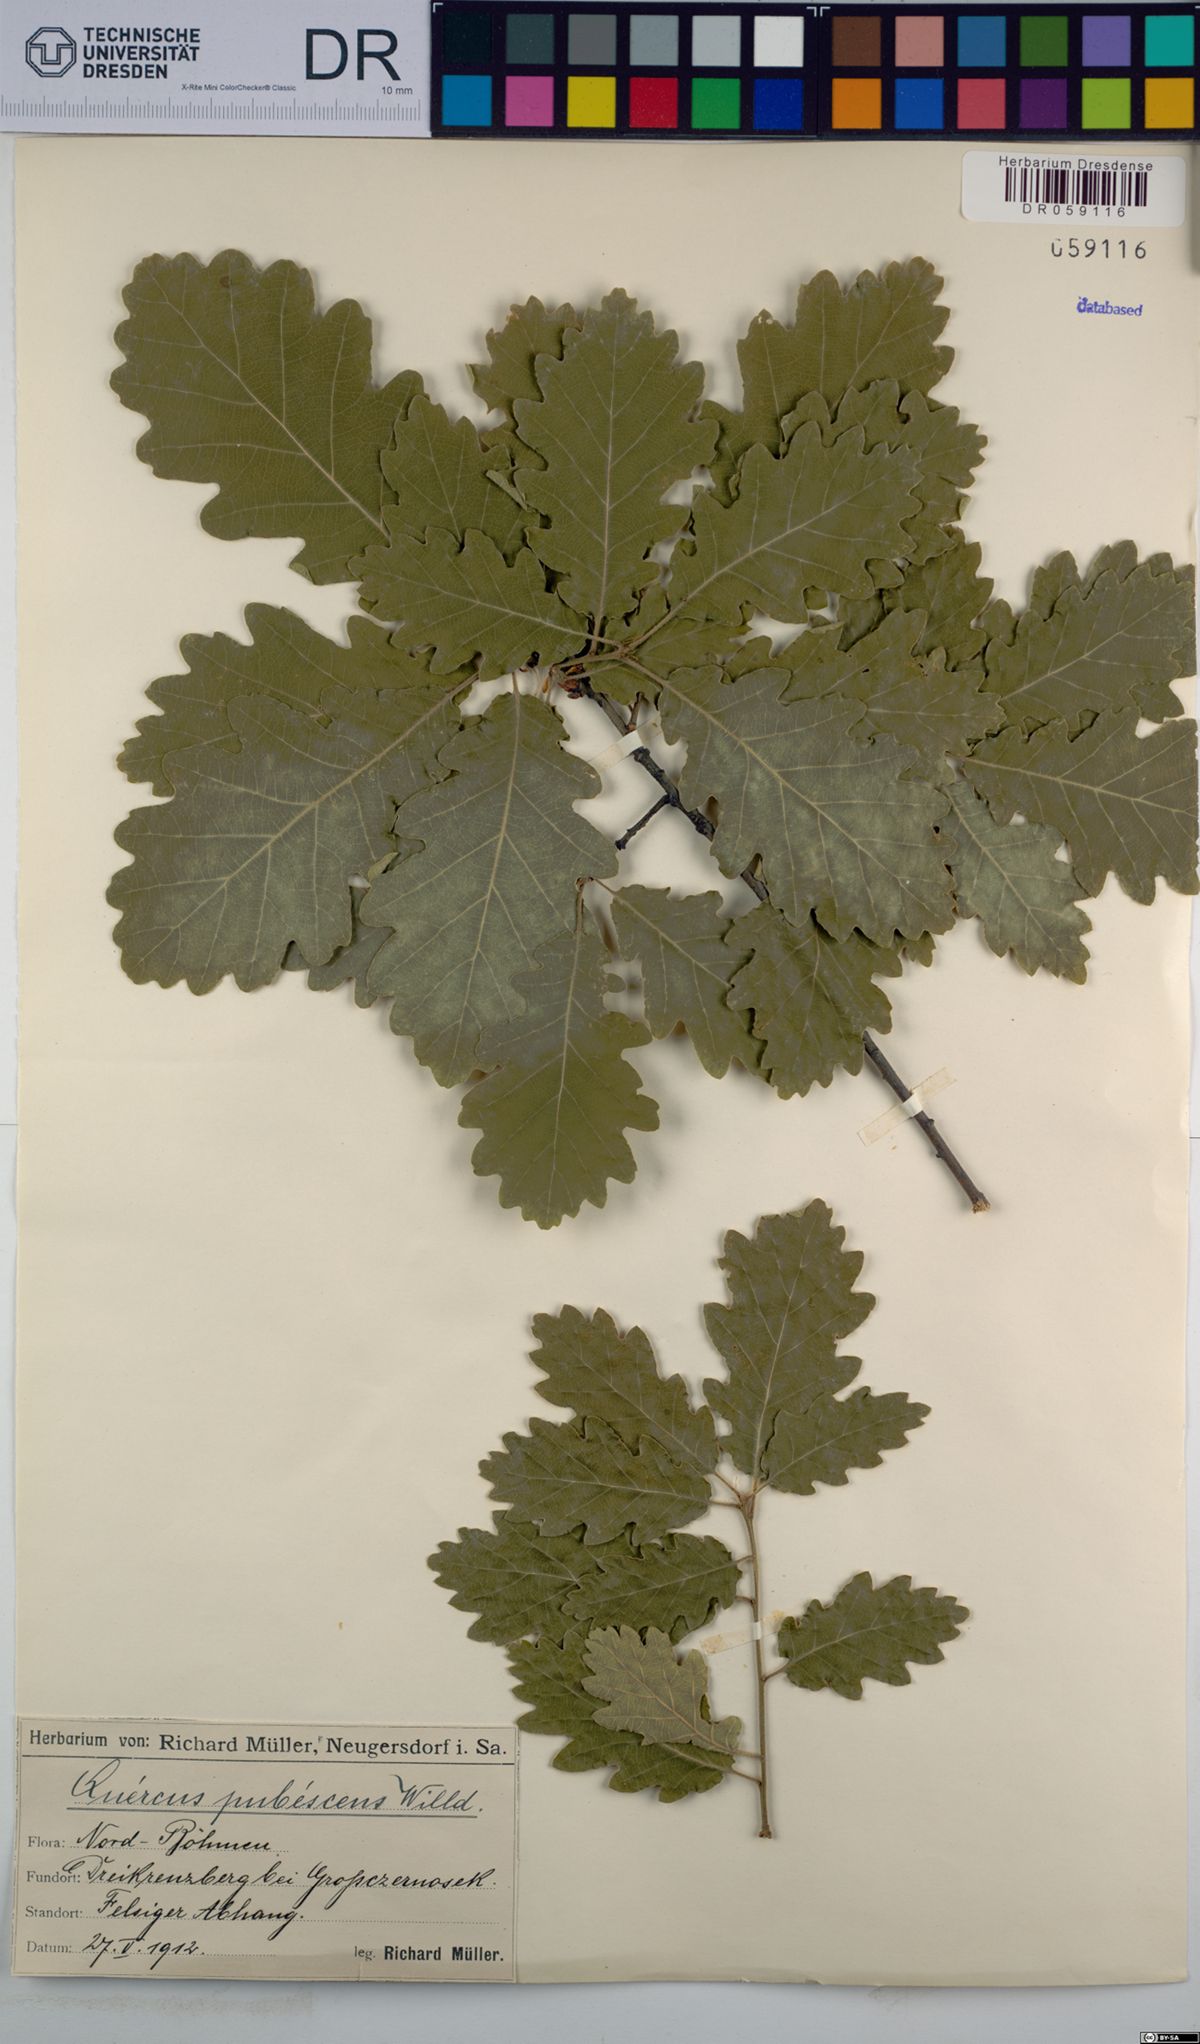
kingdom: Plantae
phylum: Tracheophyta
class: Magnoliopsida
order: Fagales
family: Fagaceae
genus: Quercus
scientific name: Quercus pubescens
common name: Downy oak
